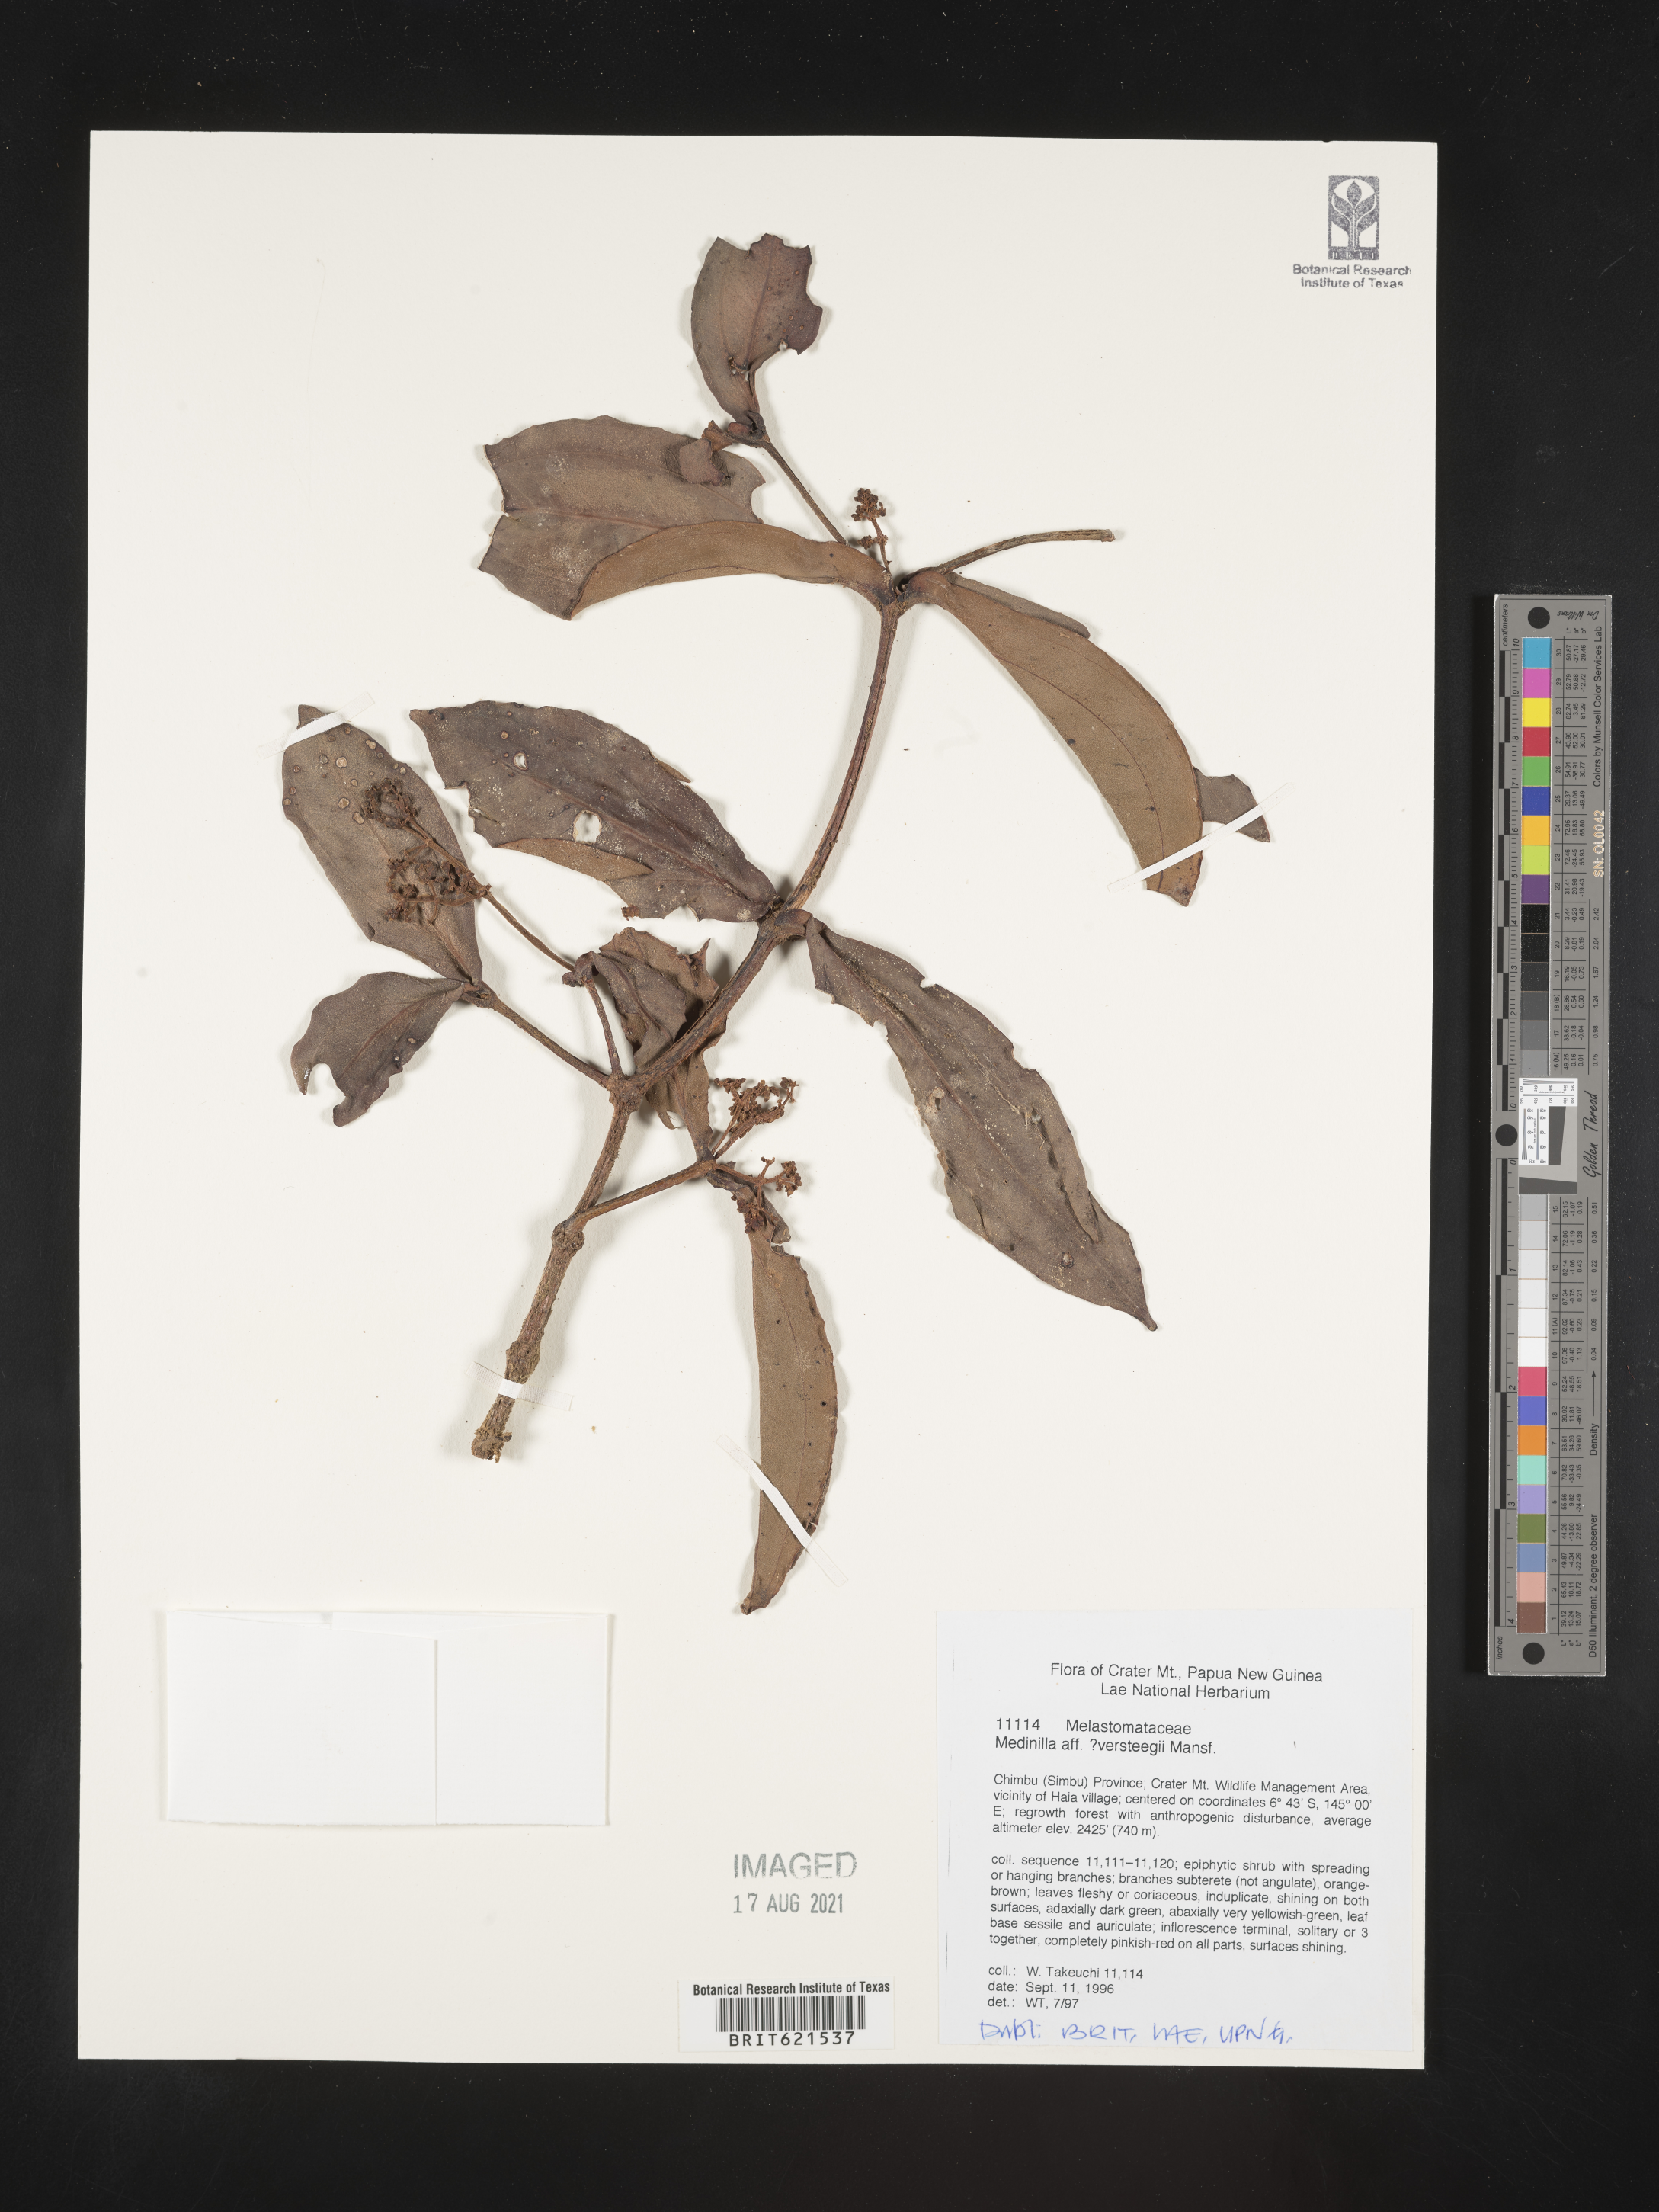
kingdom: Plantae
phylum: Tracheophyta
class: Magnoliopsida
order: Myrtales
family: Melastomataceae
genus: Medinilla
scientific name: Medinilla versteegii
